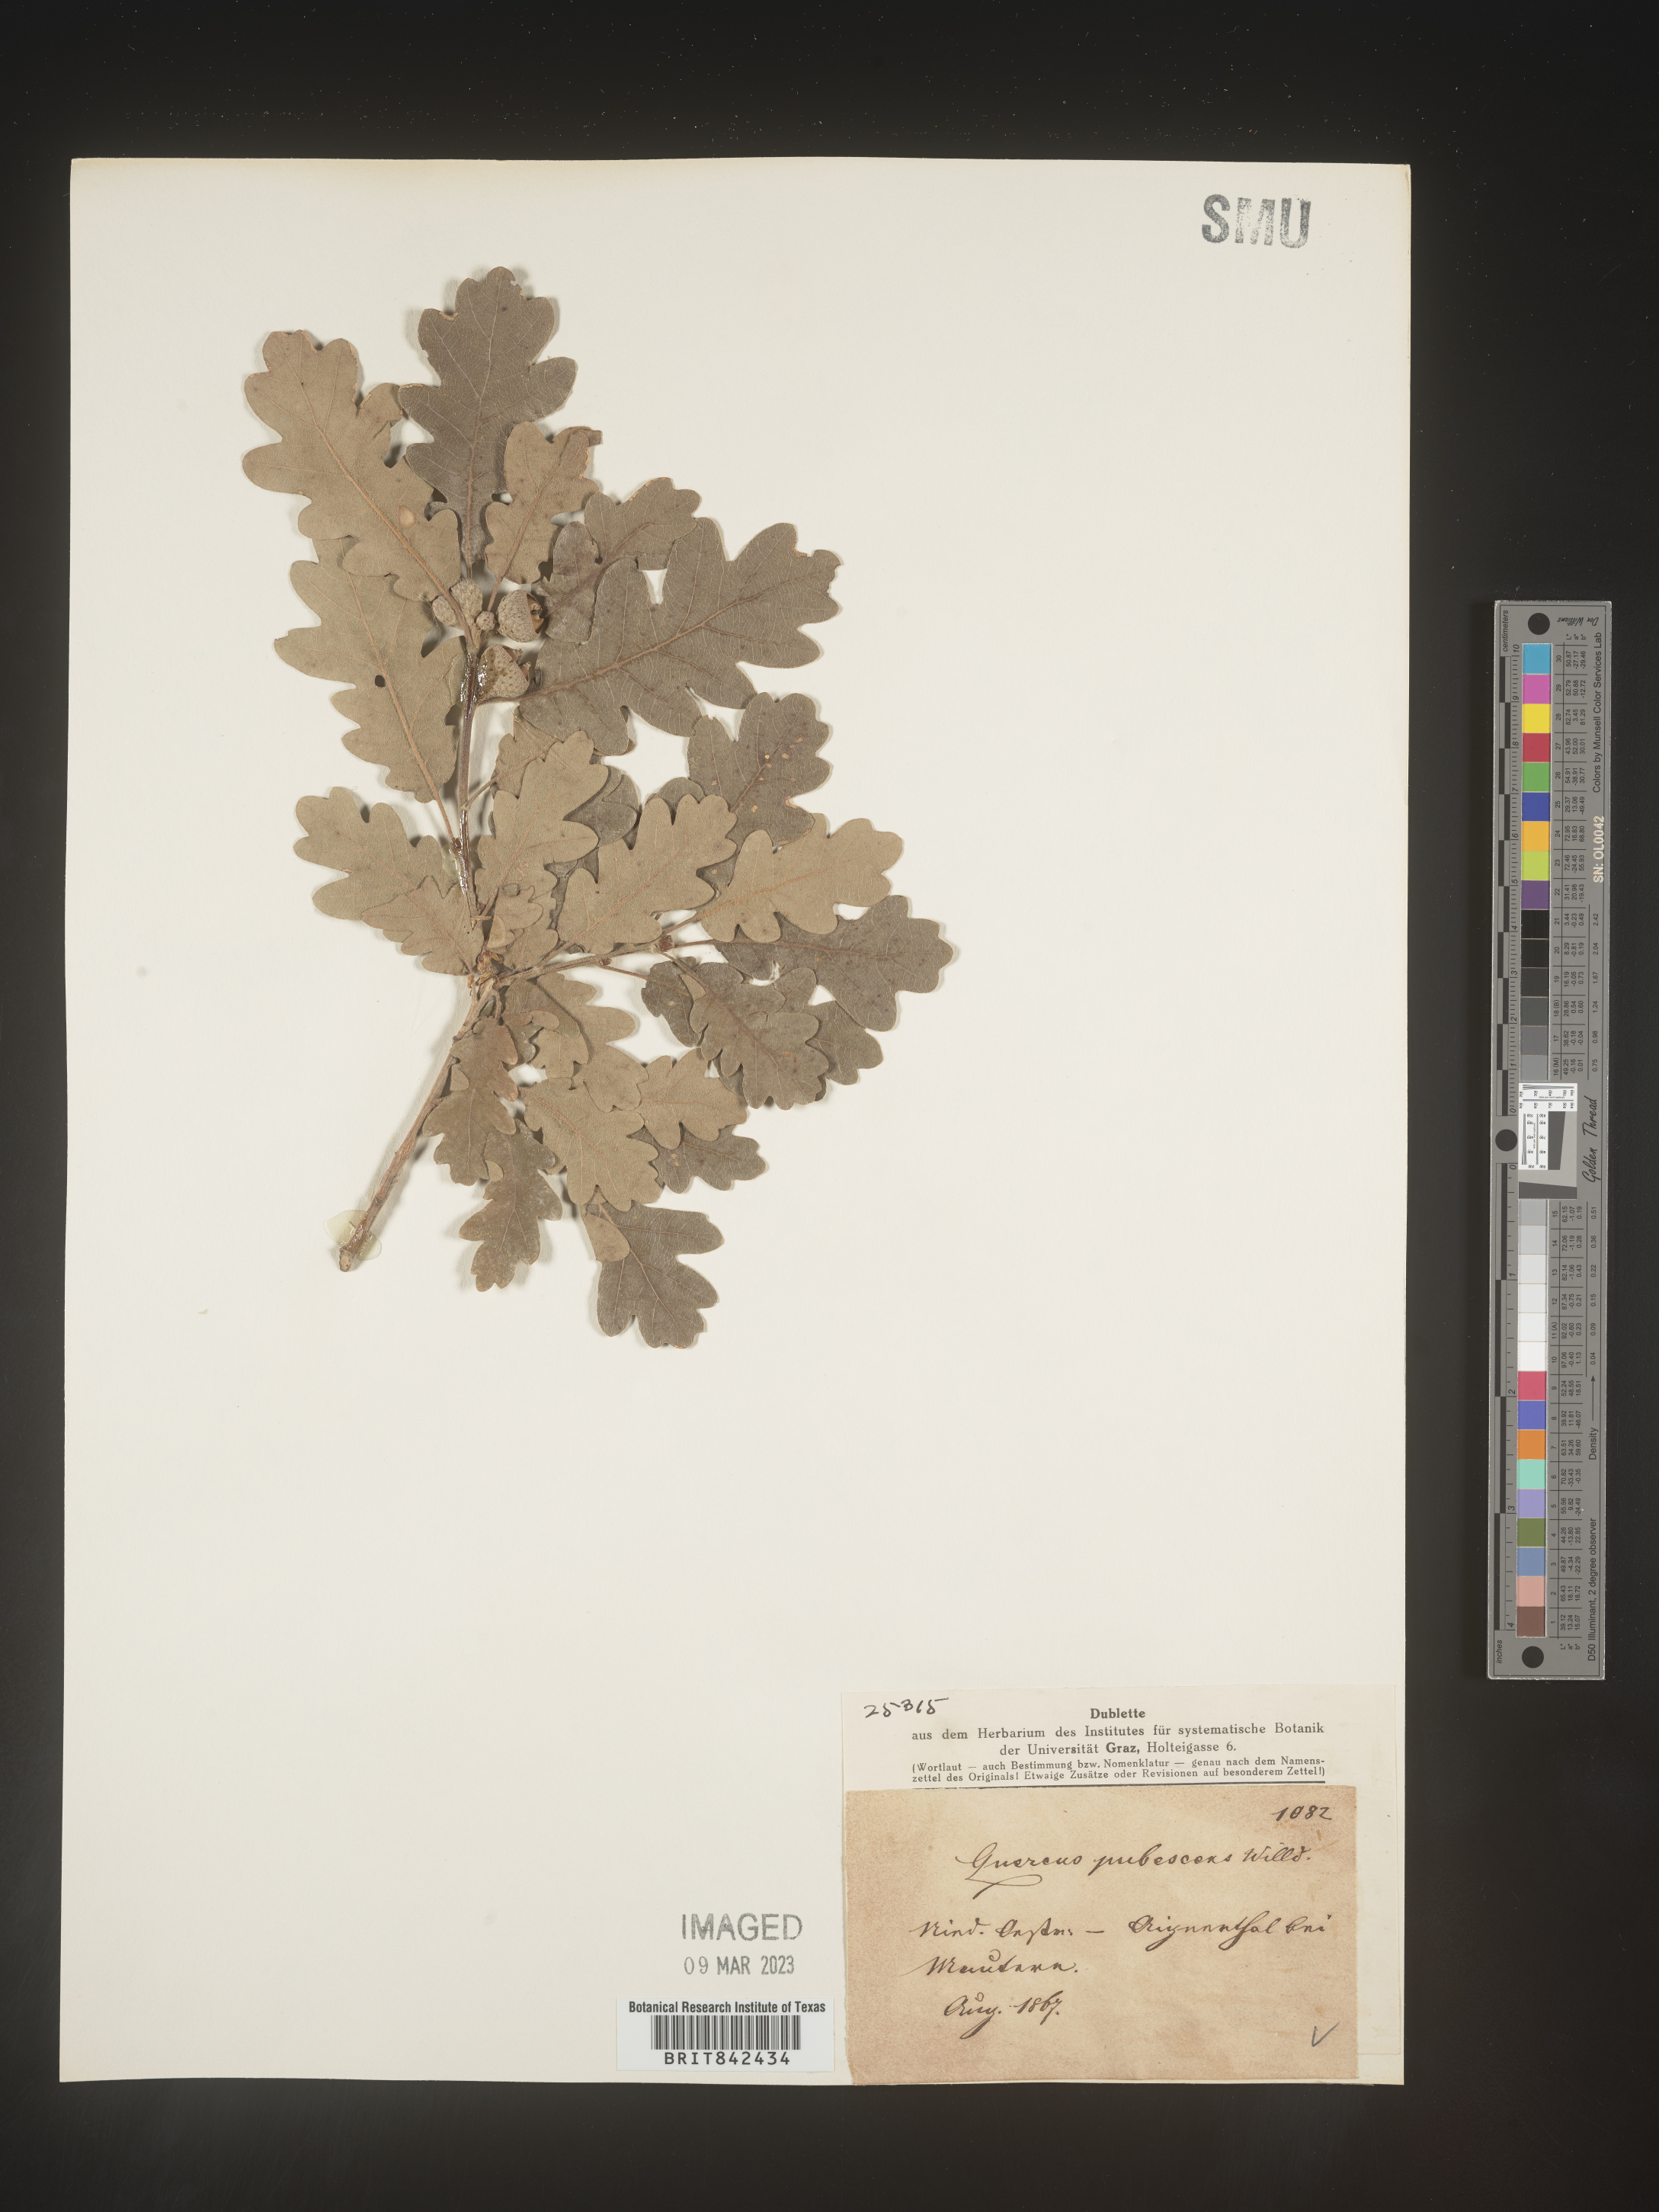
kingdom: Plantae
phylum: Tracheophyta
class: Magnoliopsida
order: Fagales
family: Fagaceae
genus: Quercus
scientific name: Quercus
